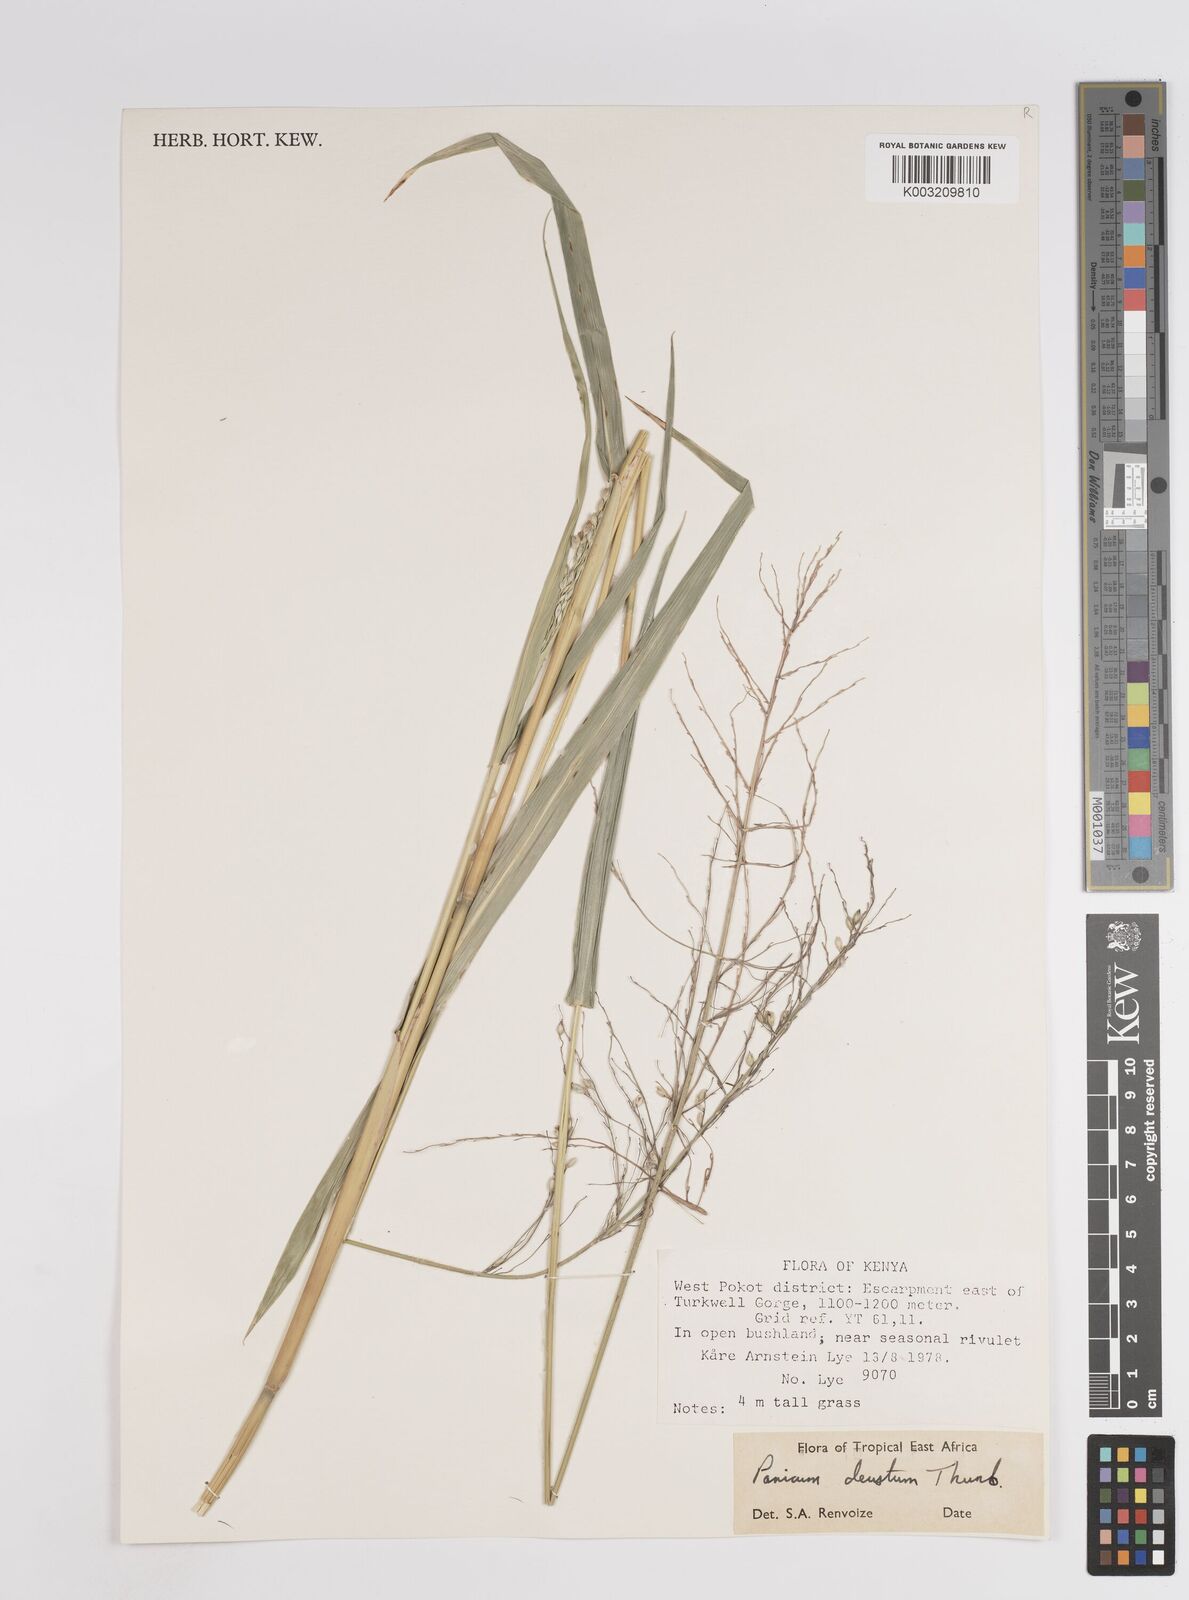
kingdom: Plantae
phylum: Tracheophyta
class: Liliopsida
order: Poales
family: Poaceae
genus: Panicum
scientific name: Panicum deustum
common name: Reed panicum
